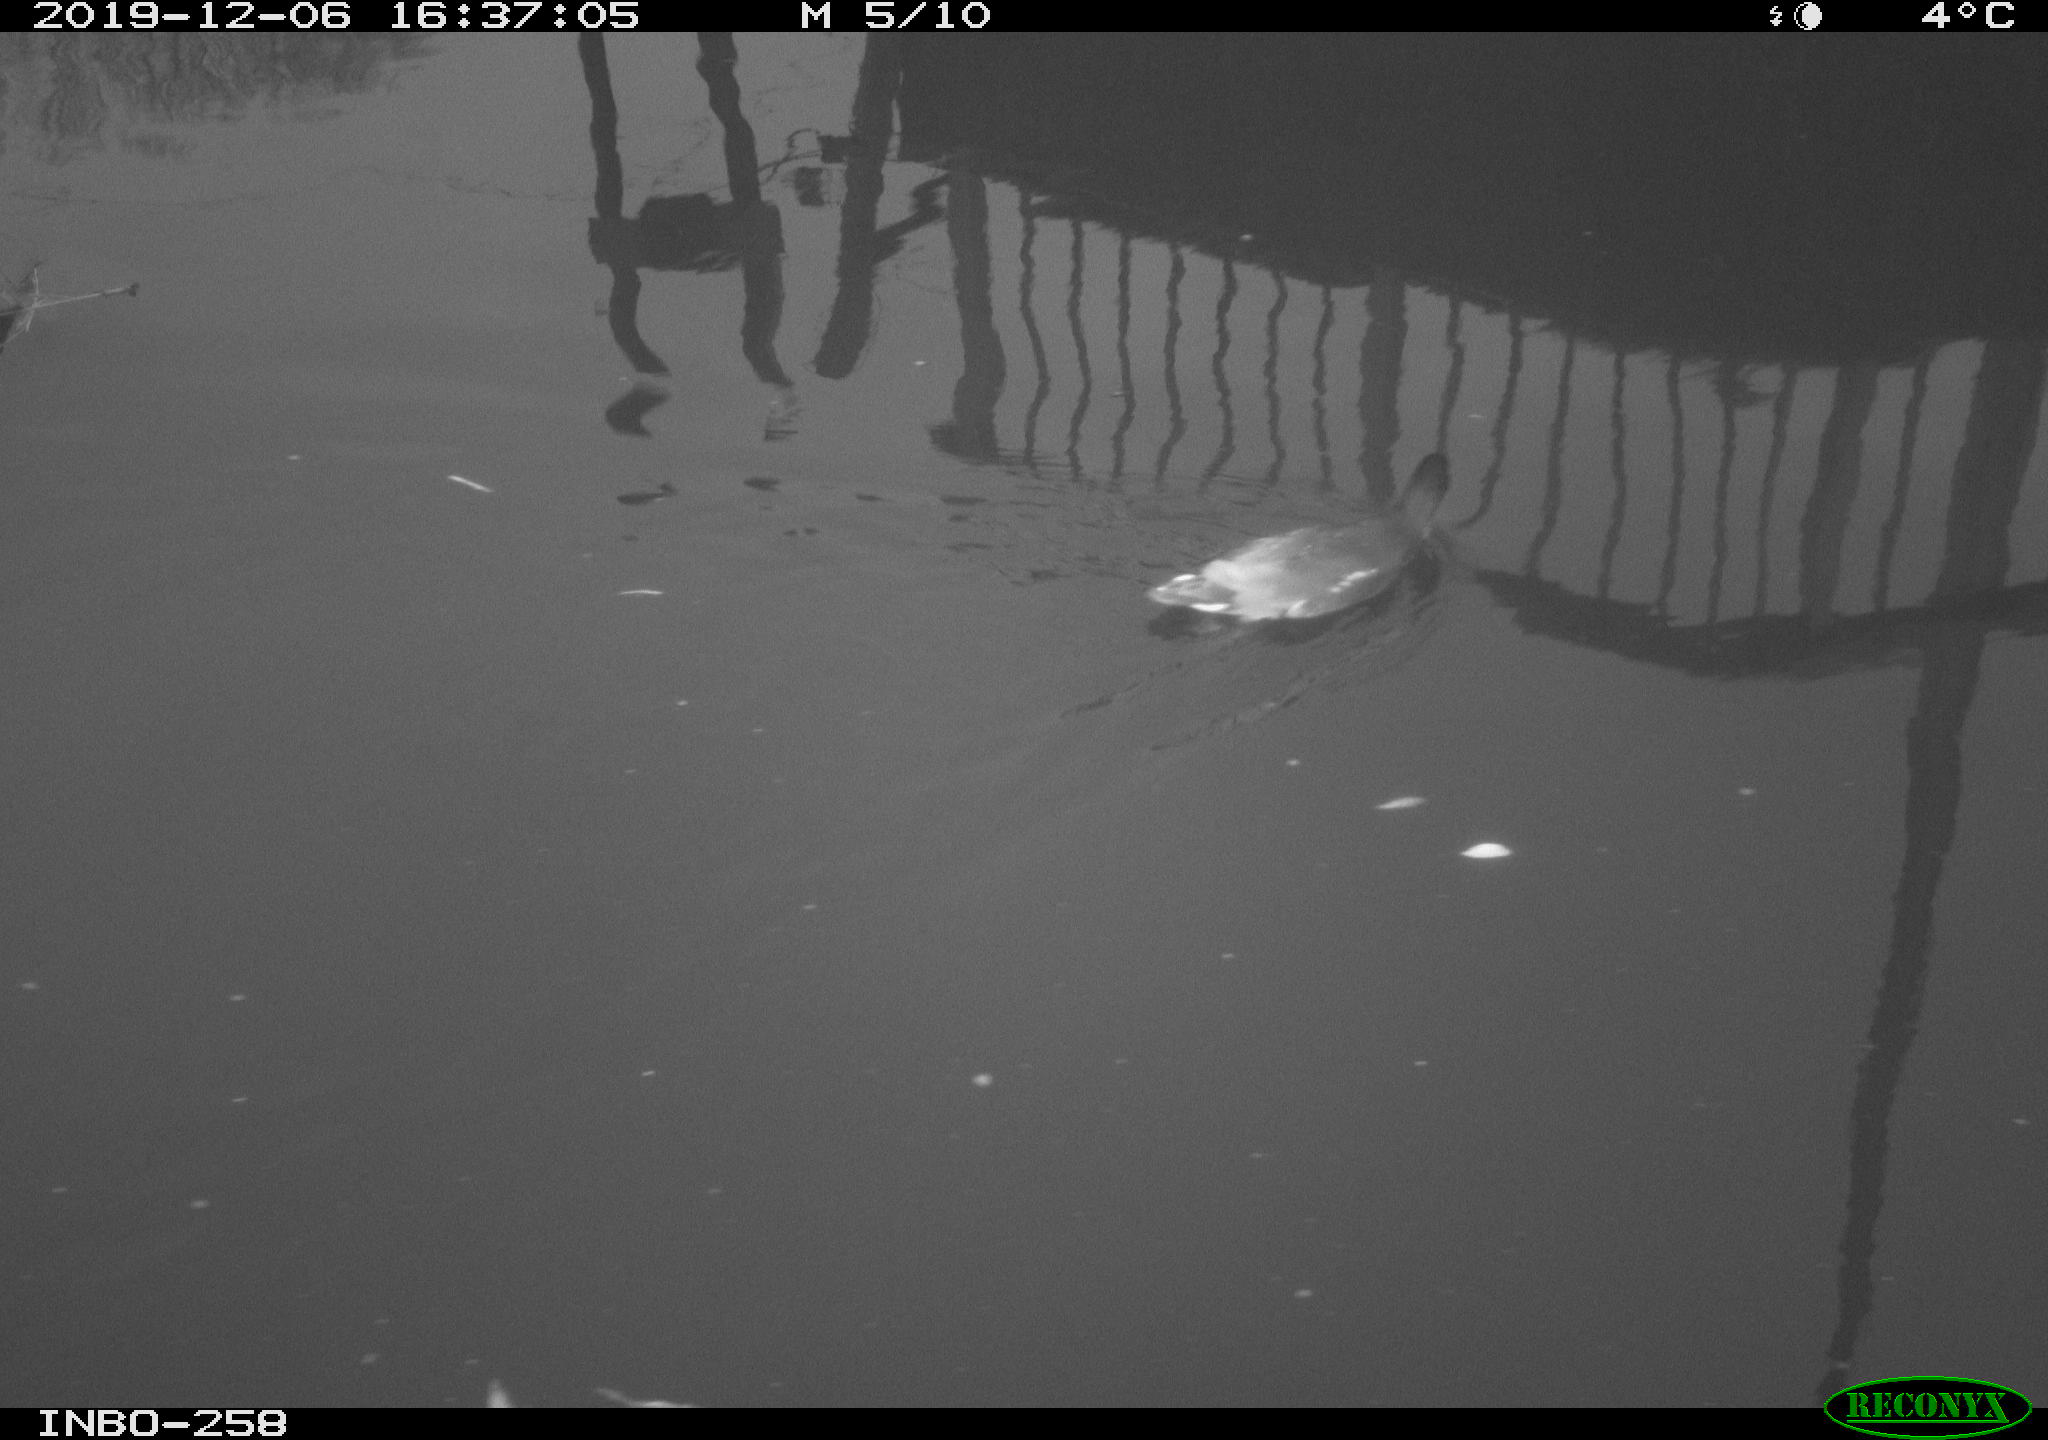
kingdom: Animalia
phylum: Chordata
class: Aves
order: Gruiformes
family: Rallidae
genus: Gallinula
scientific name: Gallinula chloropus
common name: Common moorhen
